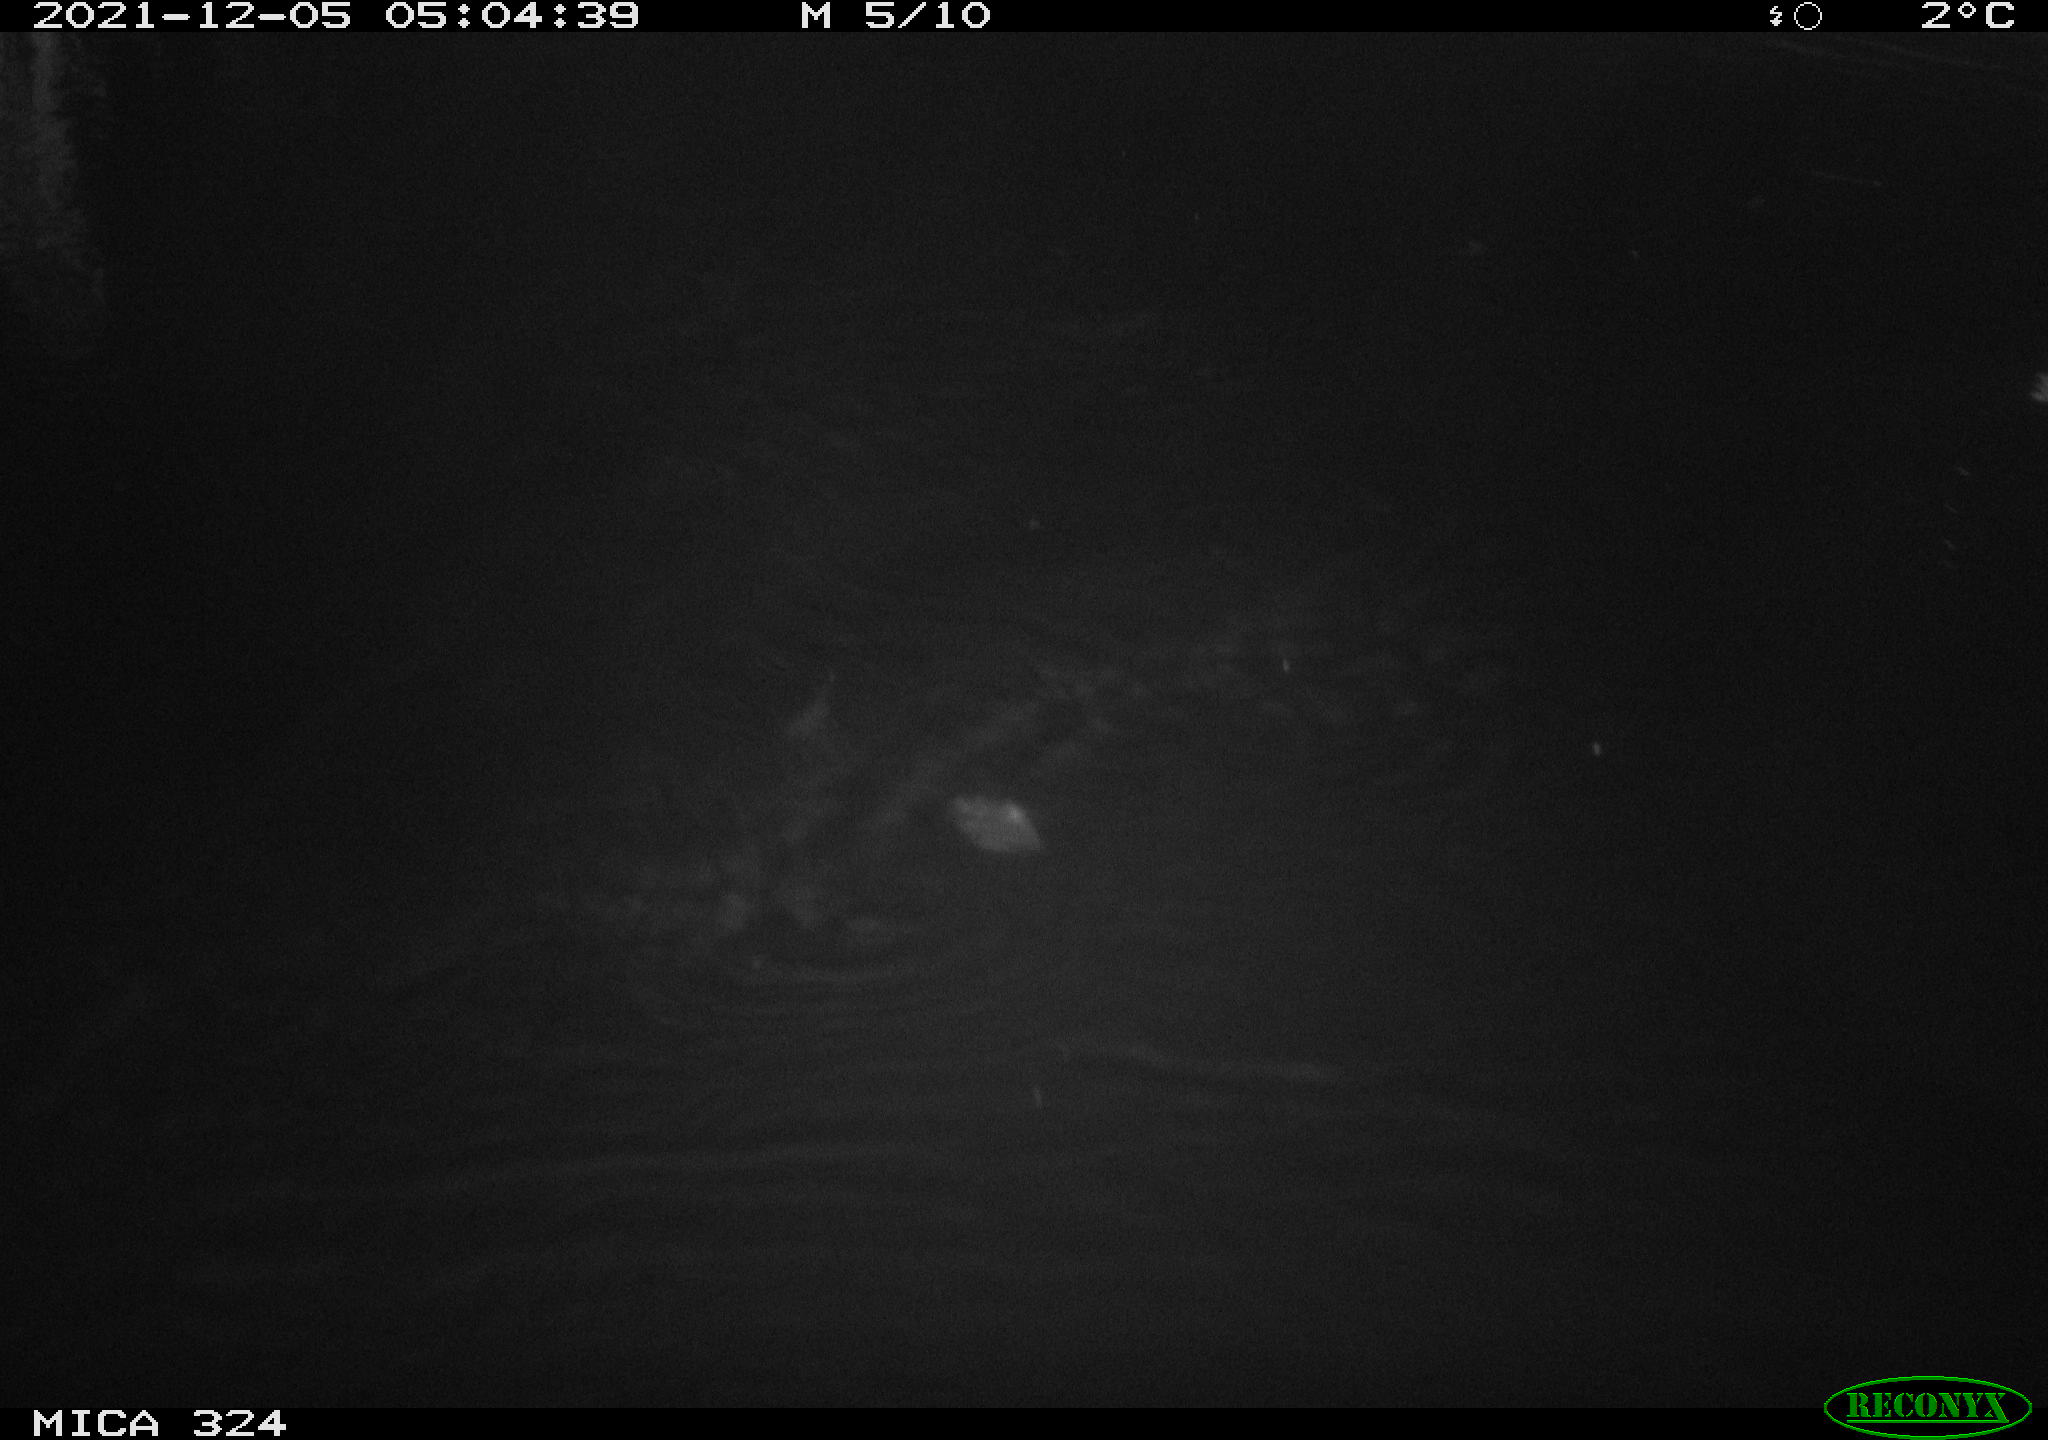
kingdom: Animalia
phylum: Chordata
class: Mammalia
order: Rodentia
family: Cricetidae
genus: Ondatra
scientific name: Ondatra zibethicus
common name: Muskrat
